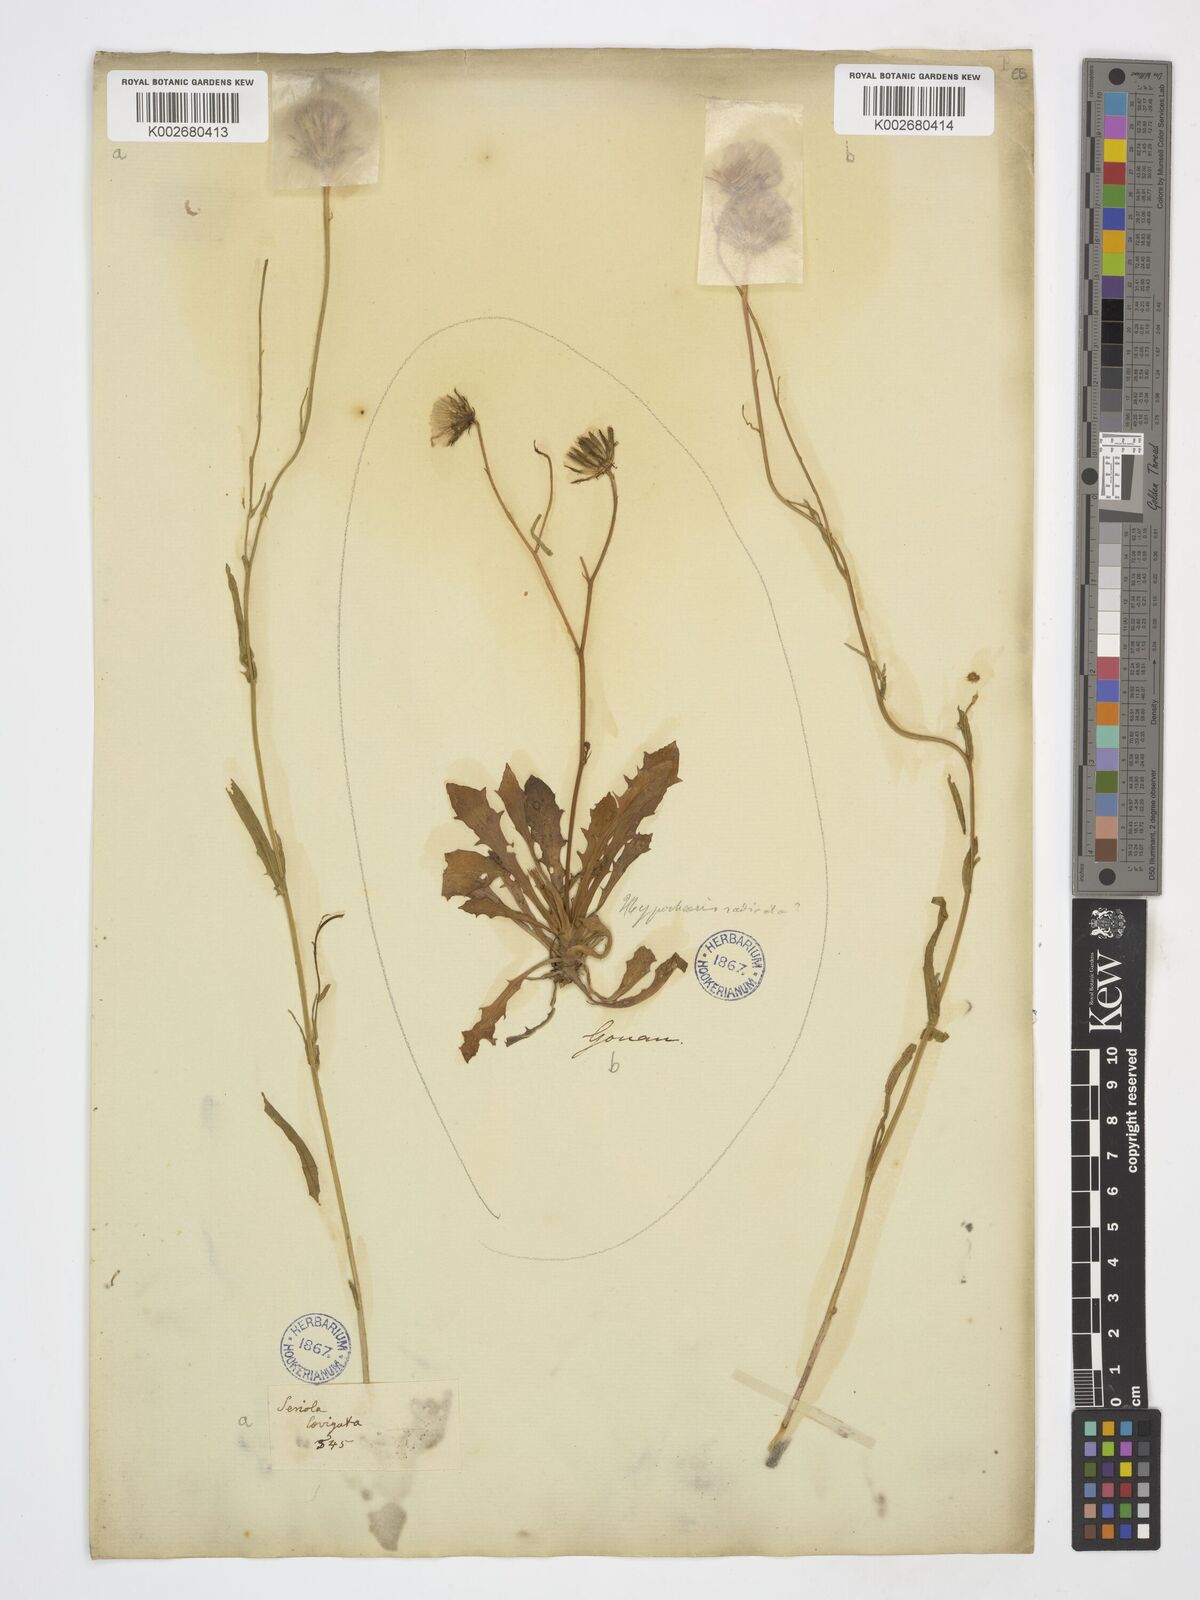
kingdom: Plantae
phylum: Tracheophyta
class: Magnoliopsida
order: Asterales
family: Asteraceae
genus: Achyrophorus
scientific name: Achyrophorus laevigatus
